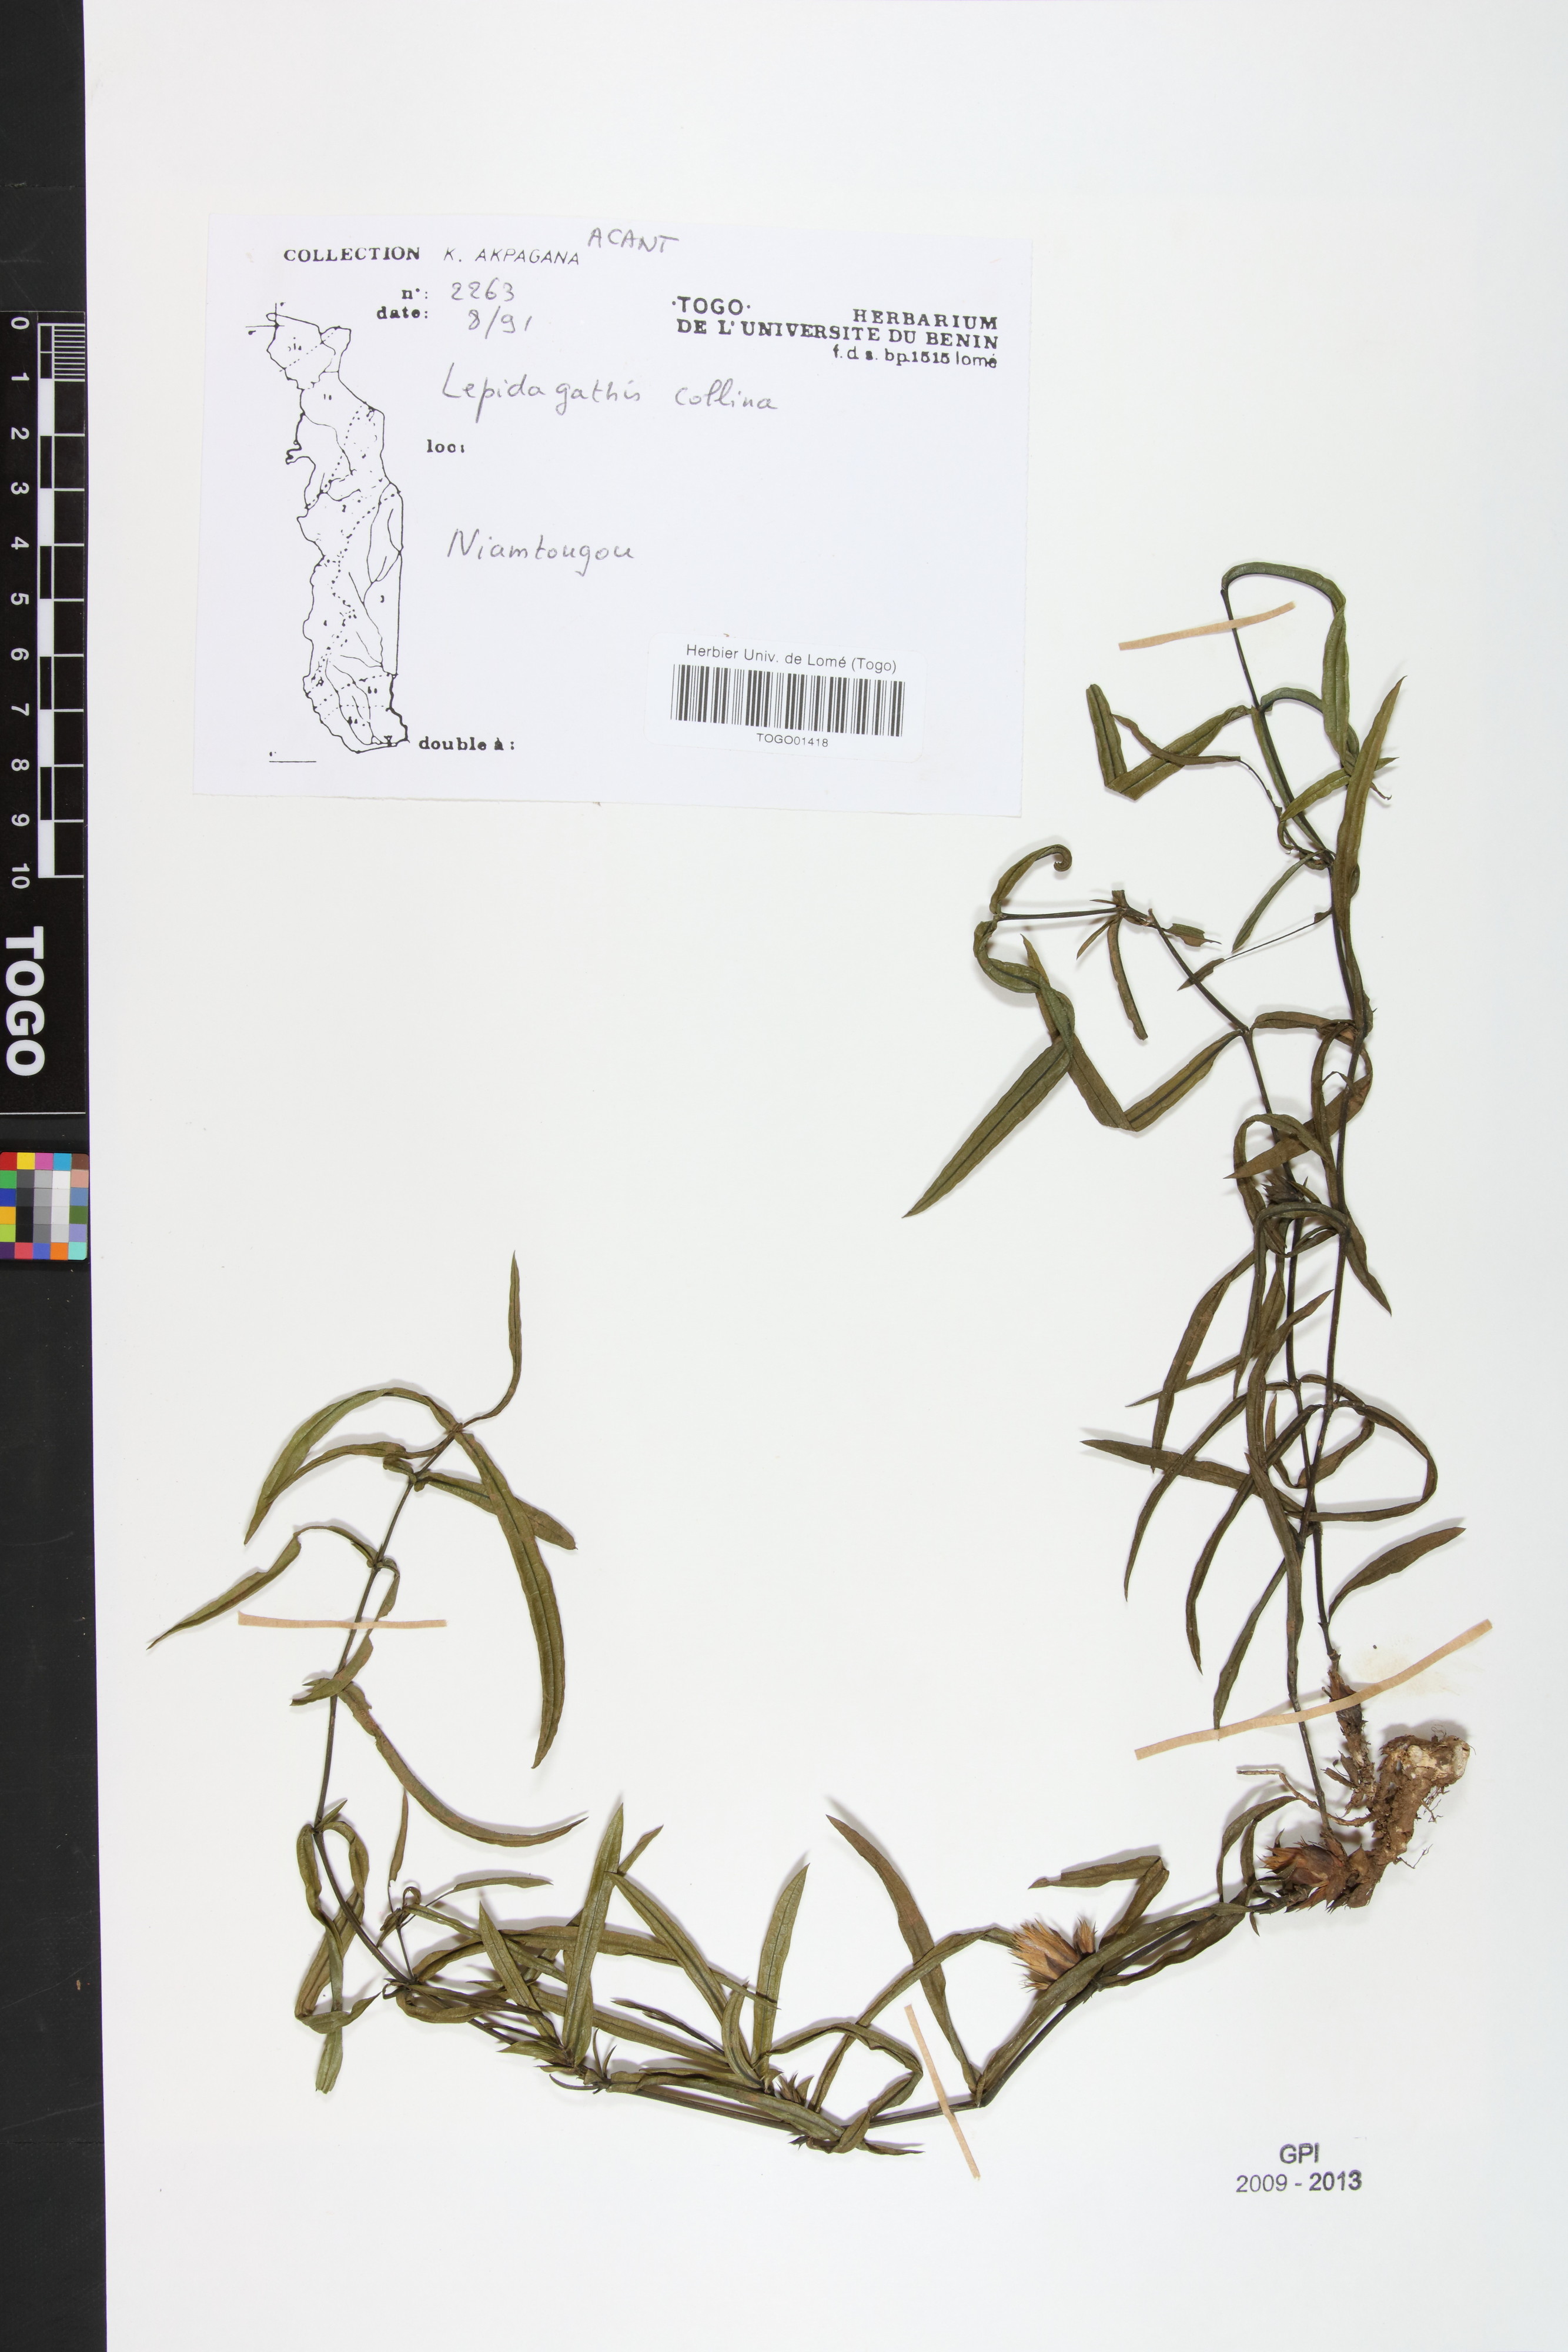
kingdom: Plantae
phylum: Tracheophyta
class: Magnoliopsida
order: Lamiales
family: Acanthaceae
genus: Lepidagathis
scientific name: Lepidagathis collina
